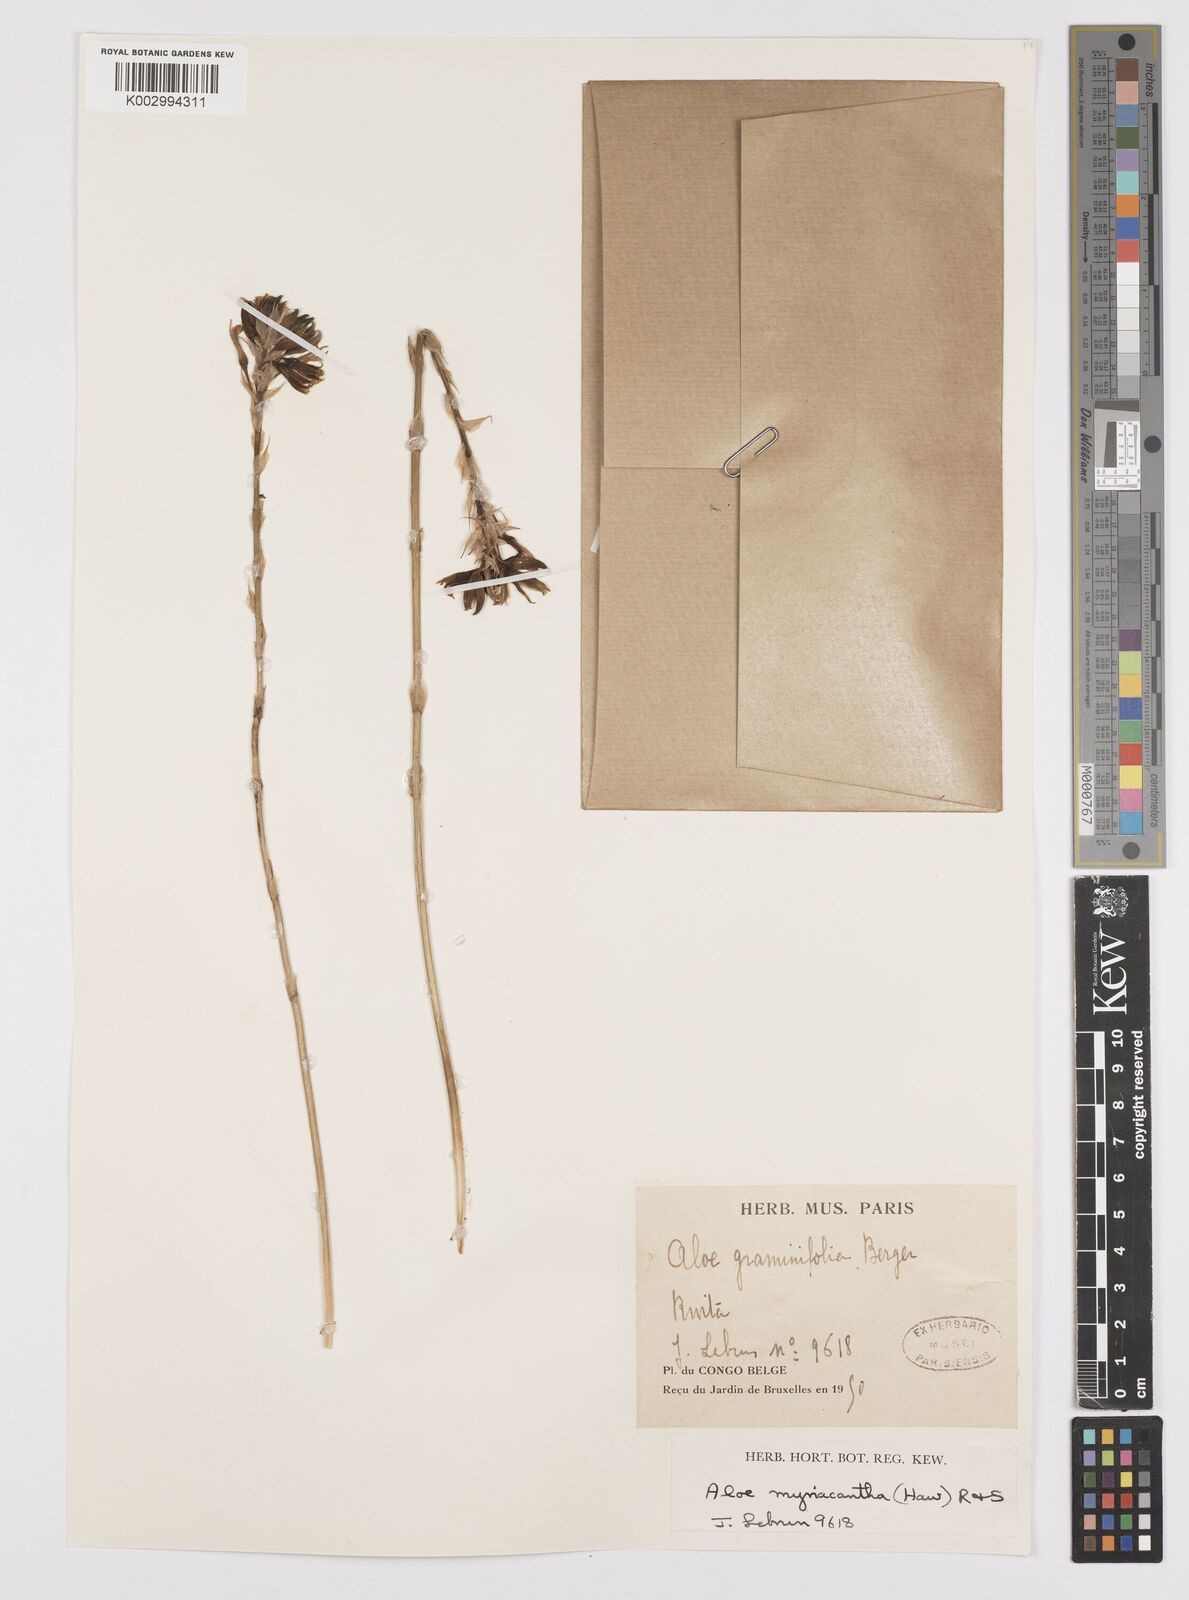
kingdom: Plantae
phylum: Tracheophyta
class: Liliopsida
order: Asparagales
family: Asphodelaceae
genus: Aloe
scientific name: Aloe myriacantha
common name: Grass aloe
